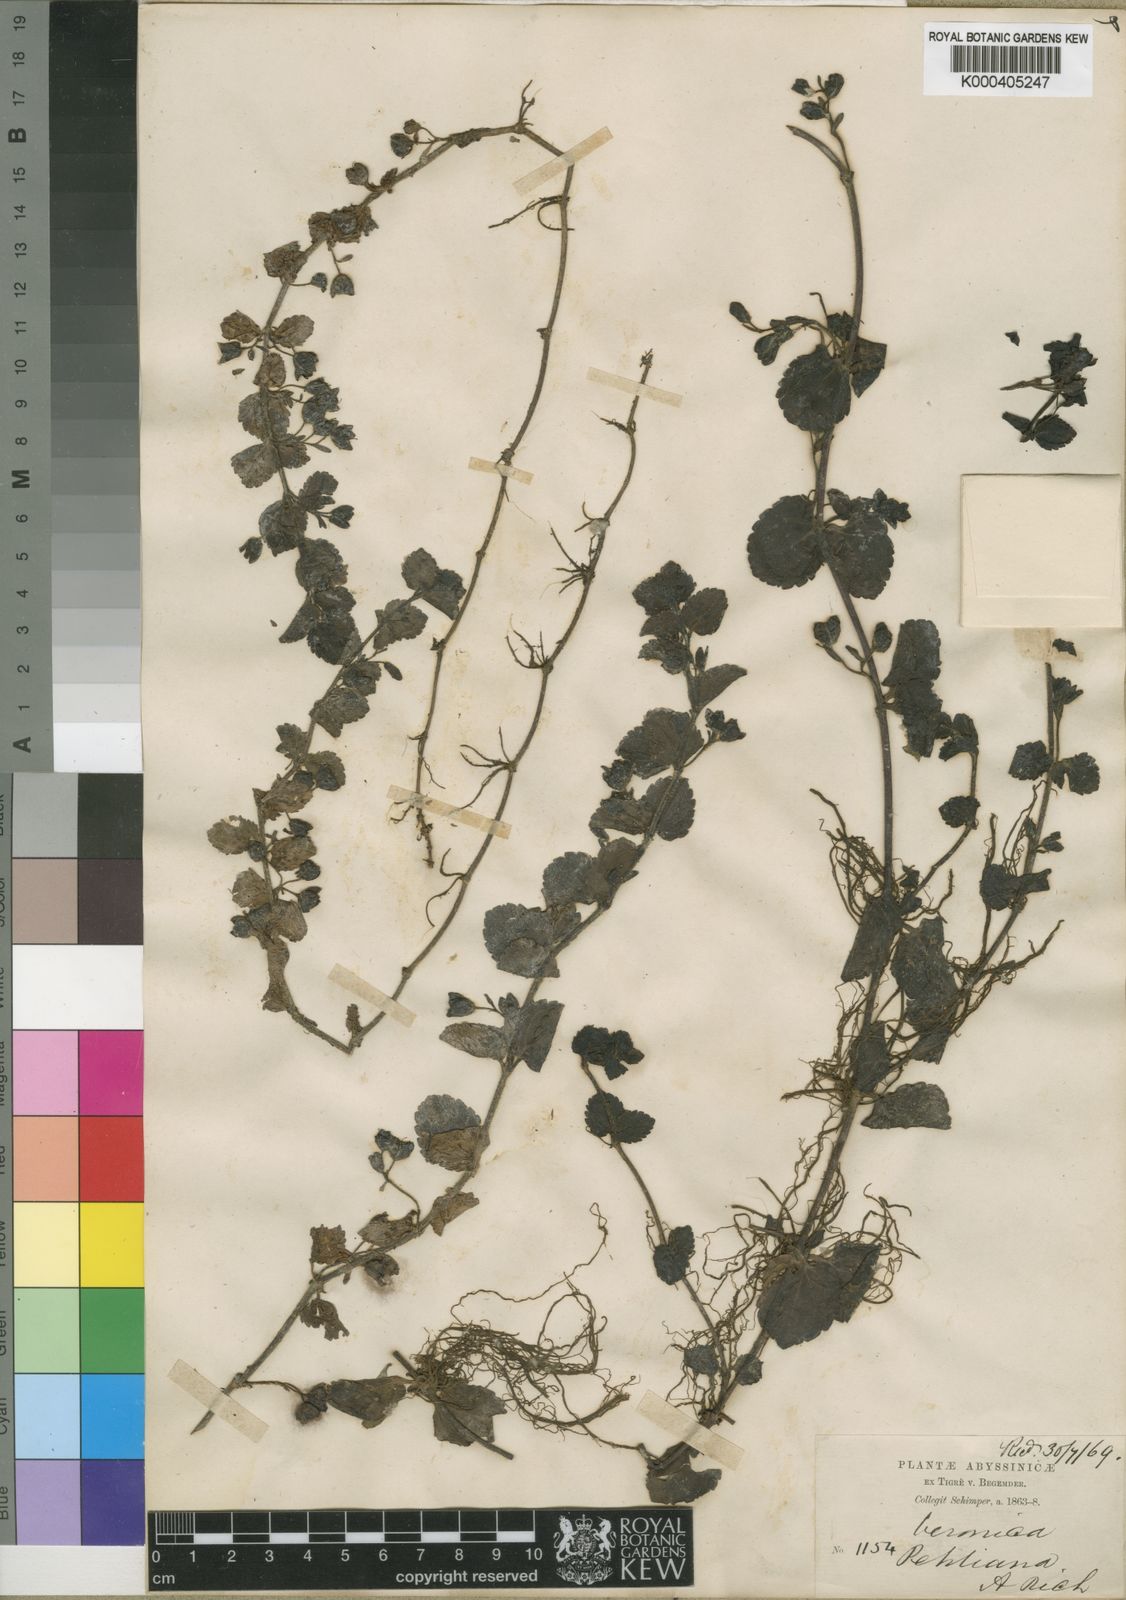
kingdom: Plantae
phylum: Tracheophyta
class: Magnoliopsida
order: Lamiales
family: Plantaginaceae
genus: Veronica
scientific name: Veronica abyssinica
